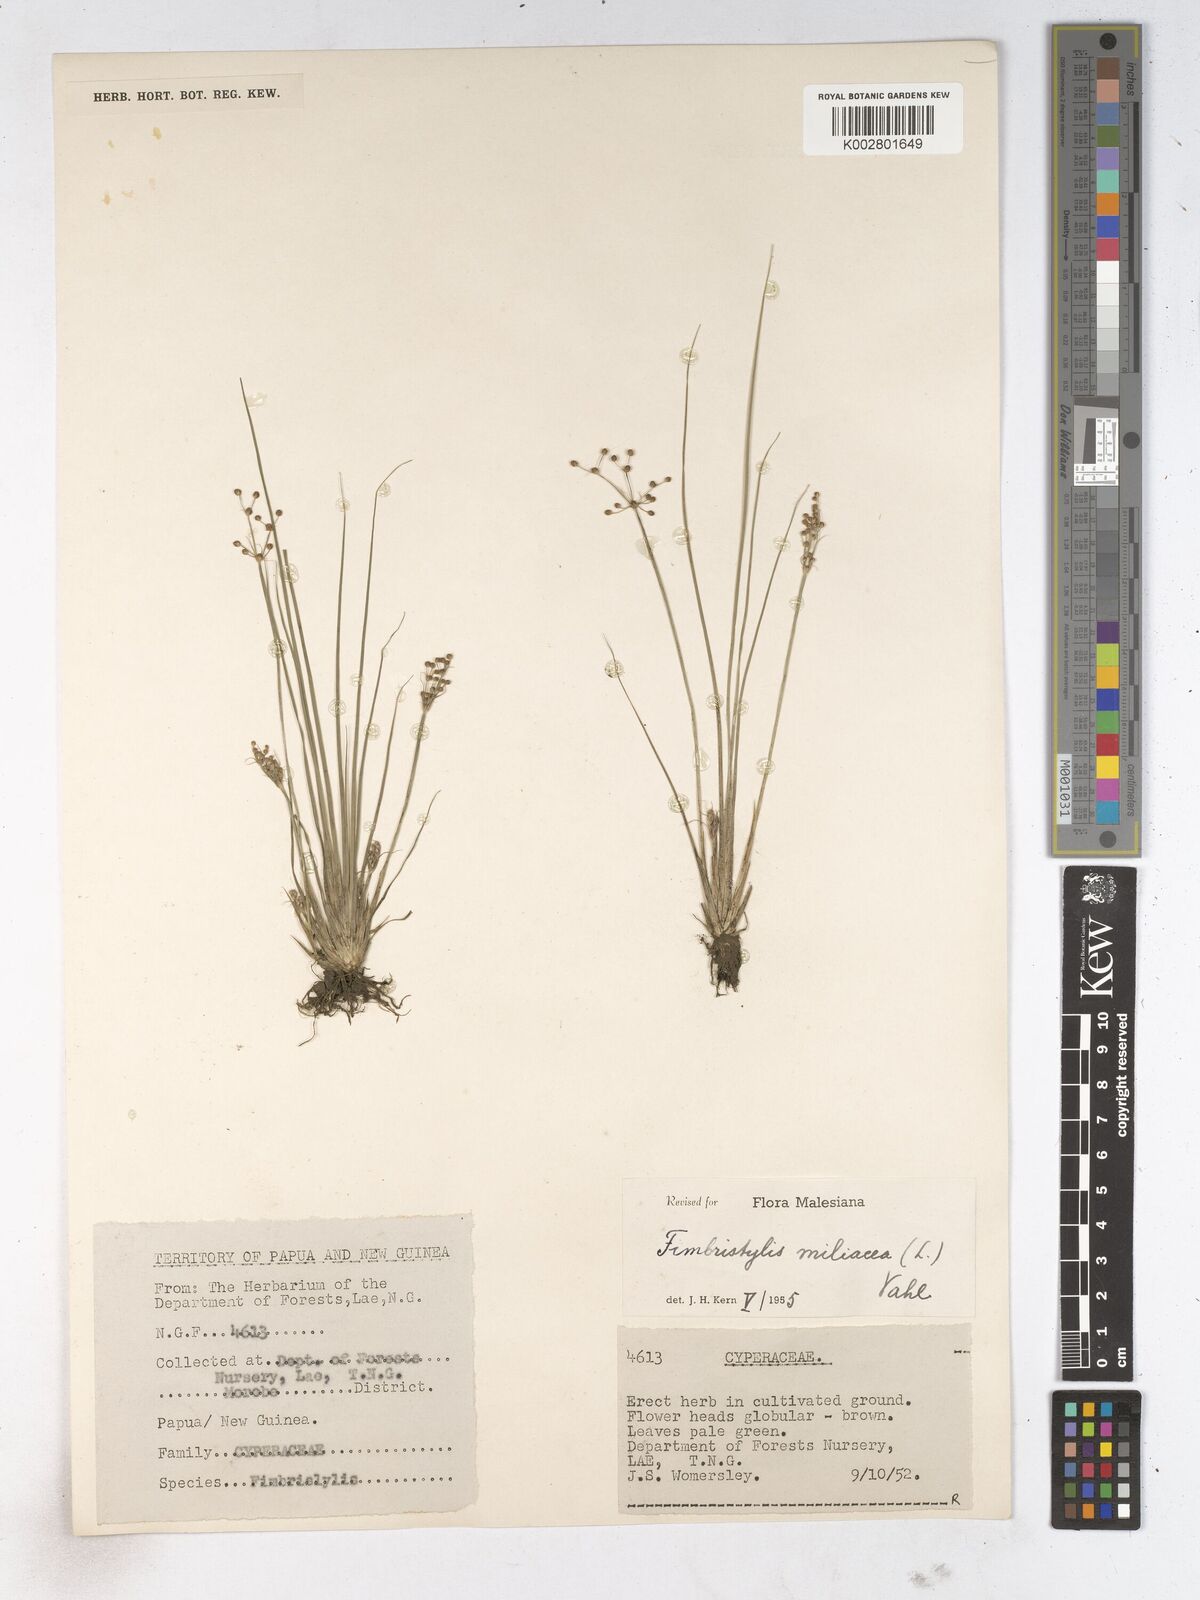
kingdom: Plantae
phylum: Tracheophyta
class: Liliopsida
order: Poales
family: Cyperaceae
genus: Fimbristylis
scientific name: Fimbristylis littoralis
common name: Fimbry
